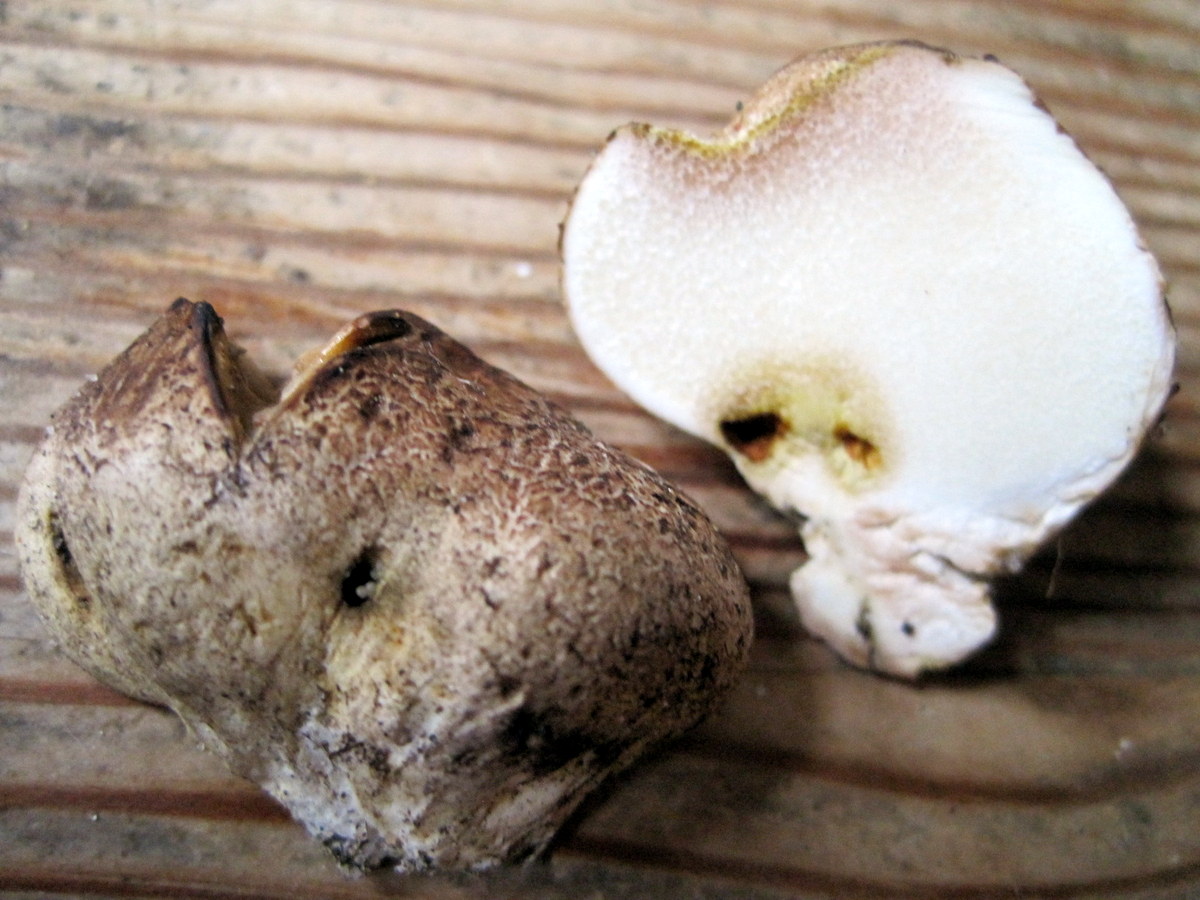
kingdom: Fungi
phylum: Basidiomycota
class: Agaricomycetes
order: Boletales
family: Sclerodermataceae
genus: Scleroderma
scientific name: Scleroderma verrucosum
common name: stilket bruskbold
